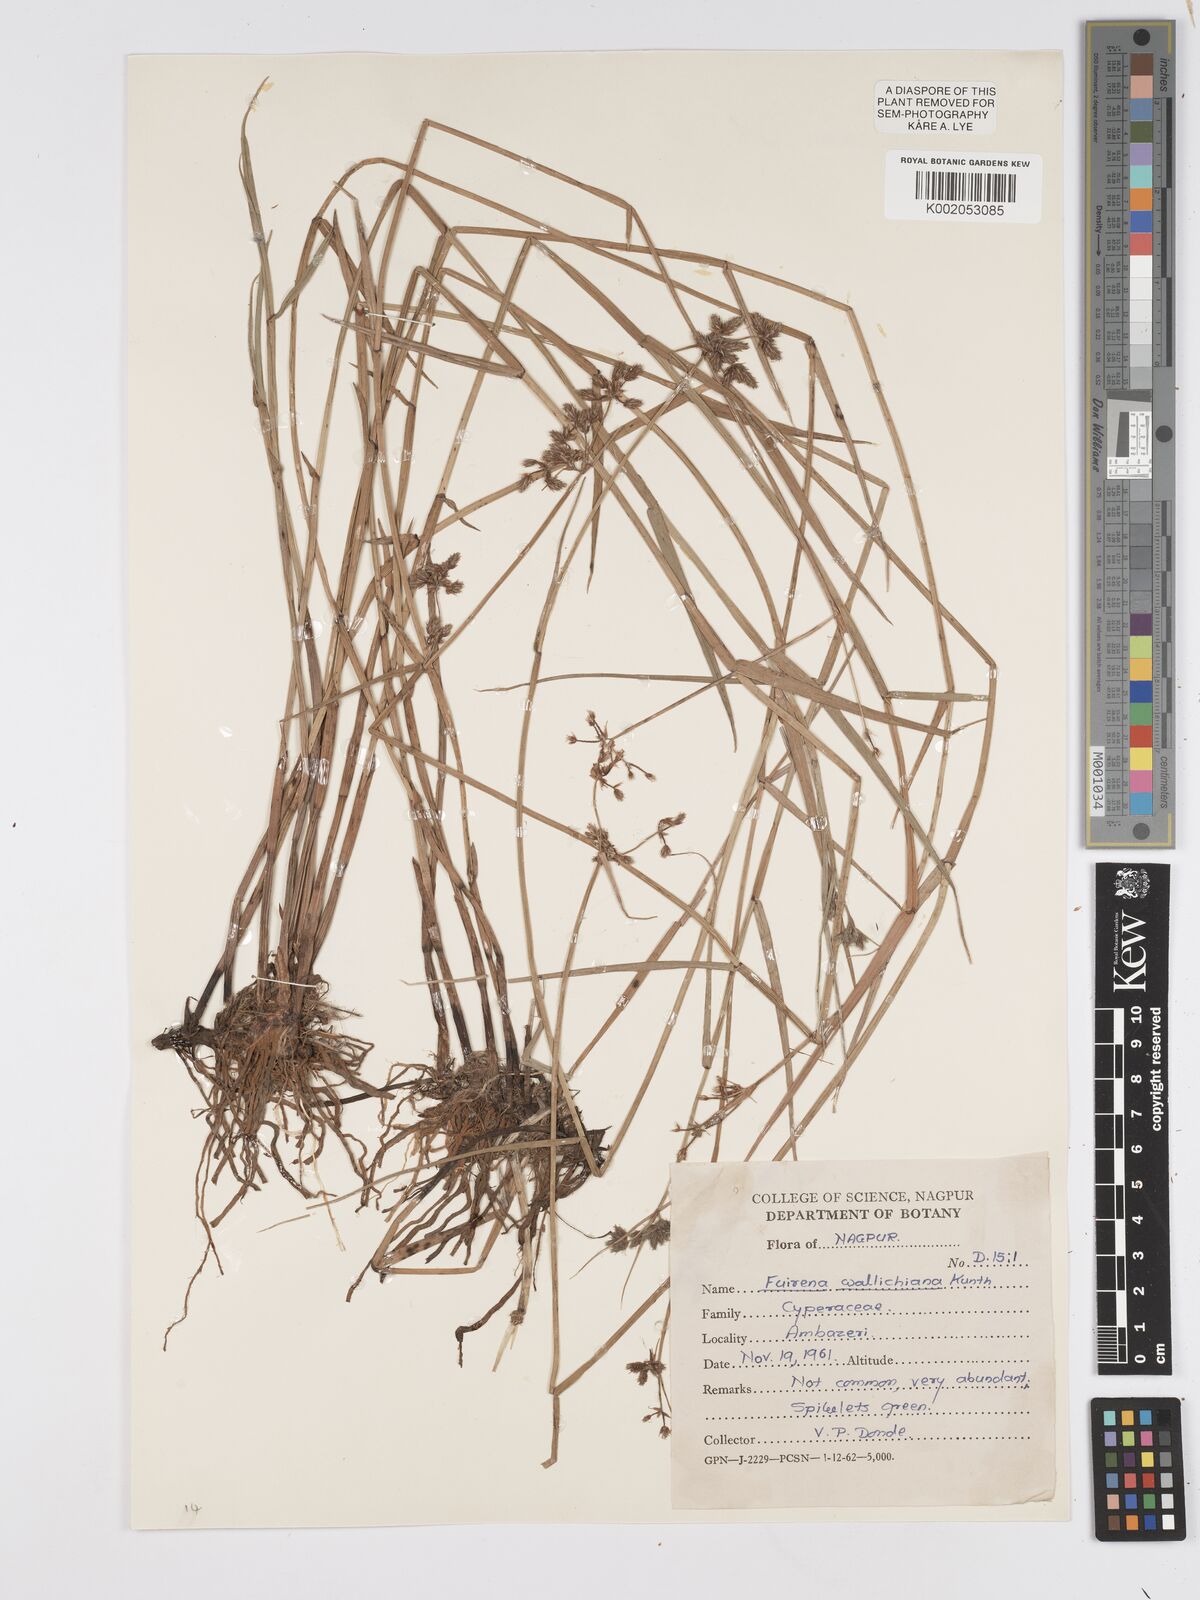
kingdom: Plantae
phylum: Tracheophyta
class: Liliopsida
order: Poales
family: Cyperaceae
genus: Fuirena
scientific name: Fuirena cuspidata
